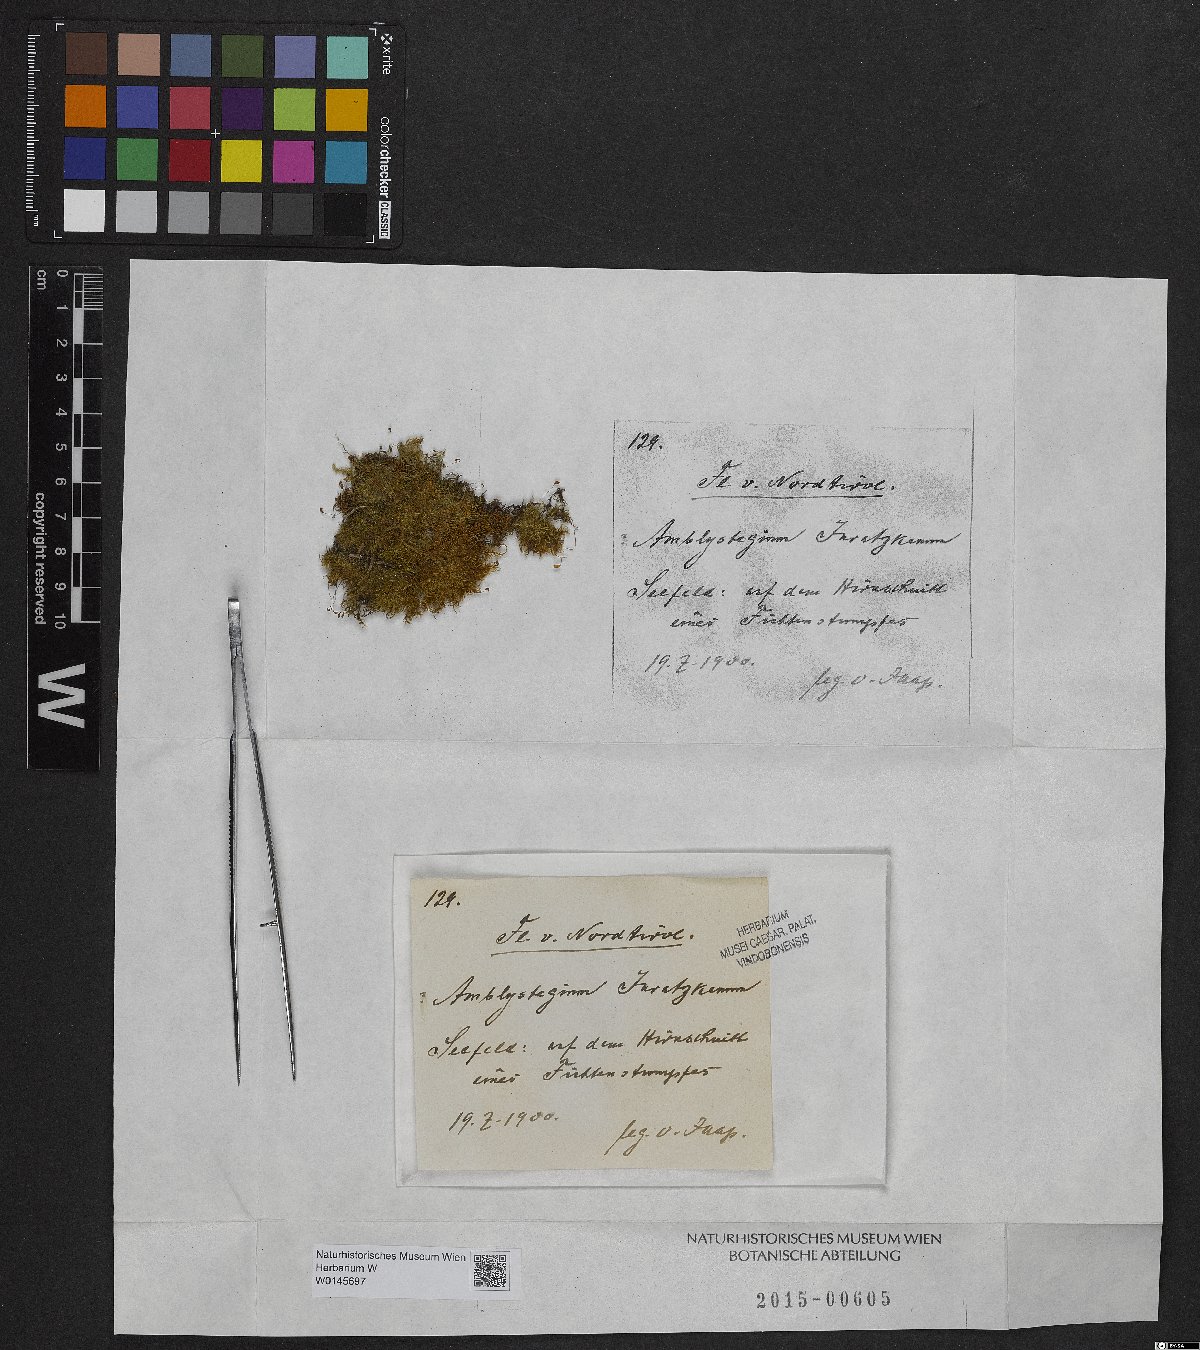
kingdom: Plantae
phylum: Bryophyta
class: Bryopsida
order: Hypnales
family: Amblystegiaceae
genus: Amblystegium
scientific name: Amblystegium serpens
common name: Jurkatzka's feather moss
